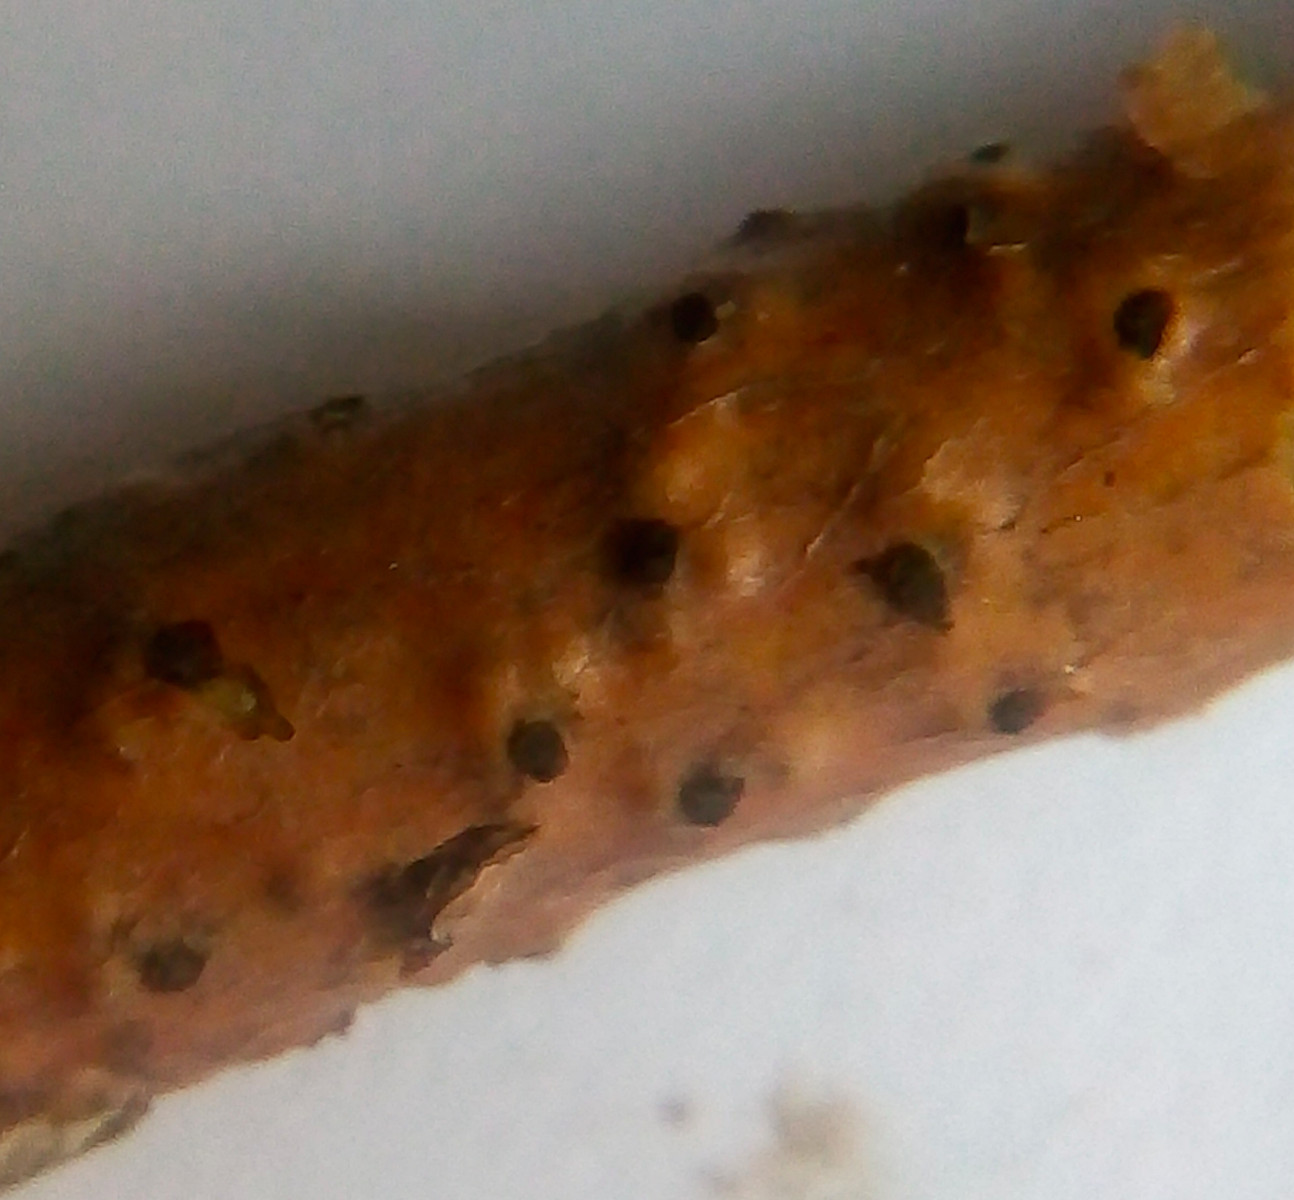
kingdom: Fungi
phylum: Ascomycota
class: Sordariomycetes
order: Diaporthales
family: Diaporthaceae
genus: Diaporthe
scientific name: Diaporthe
